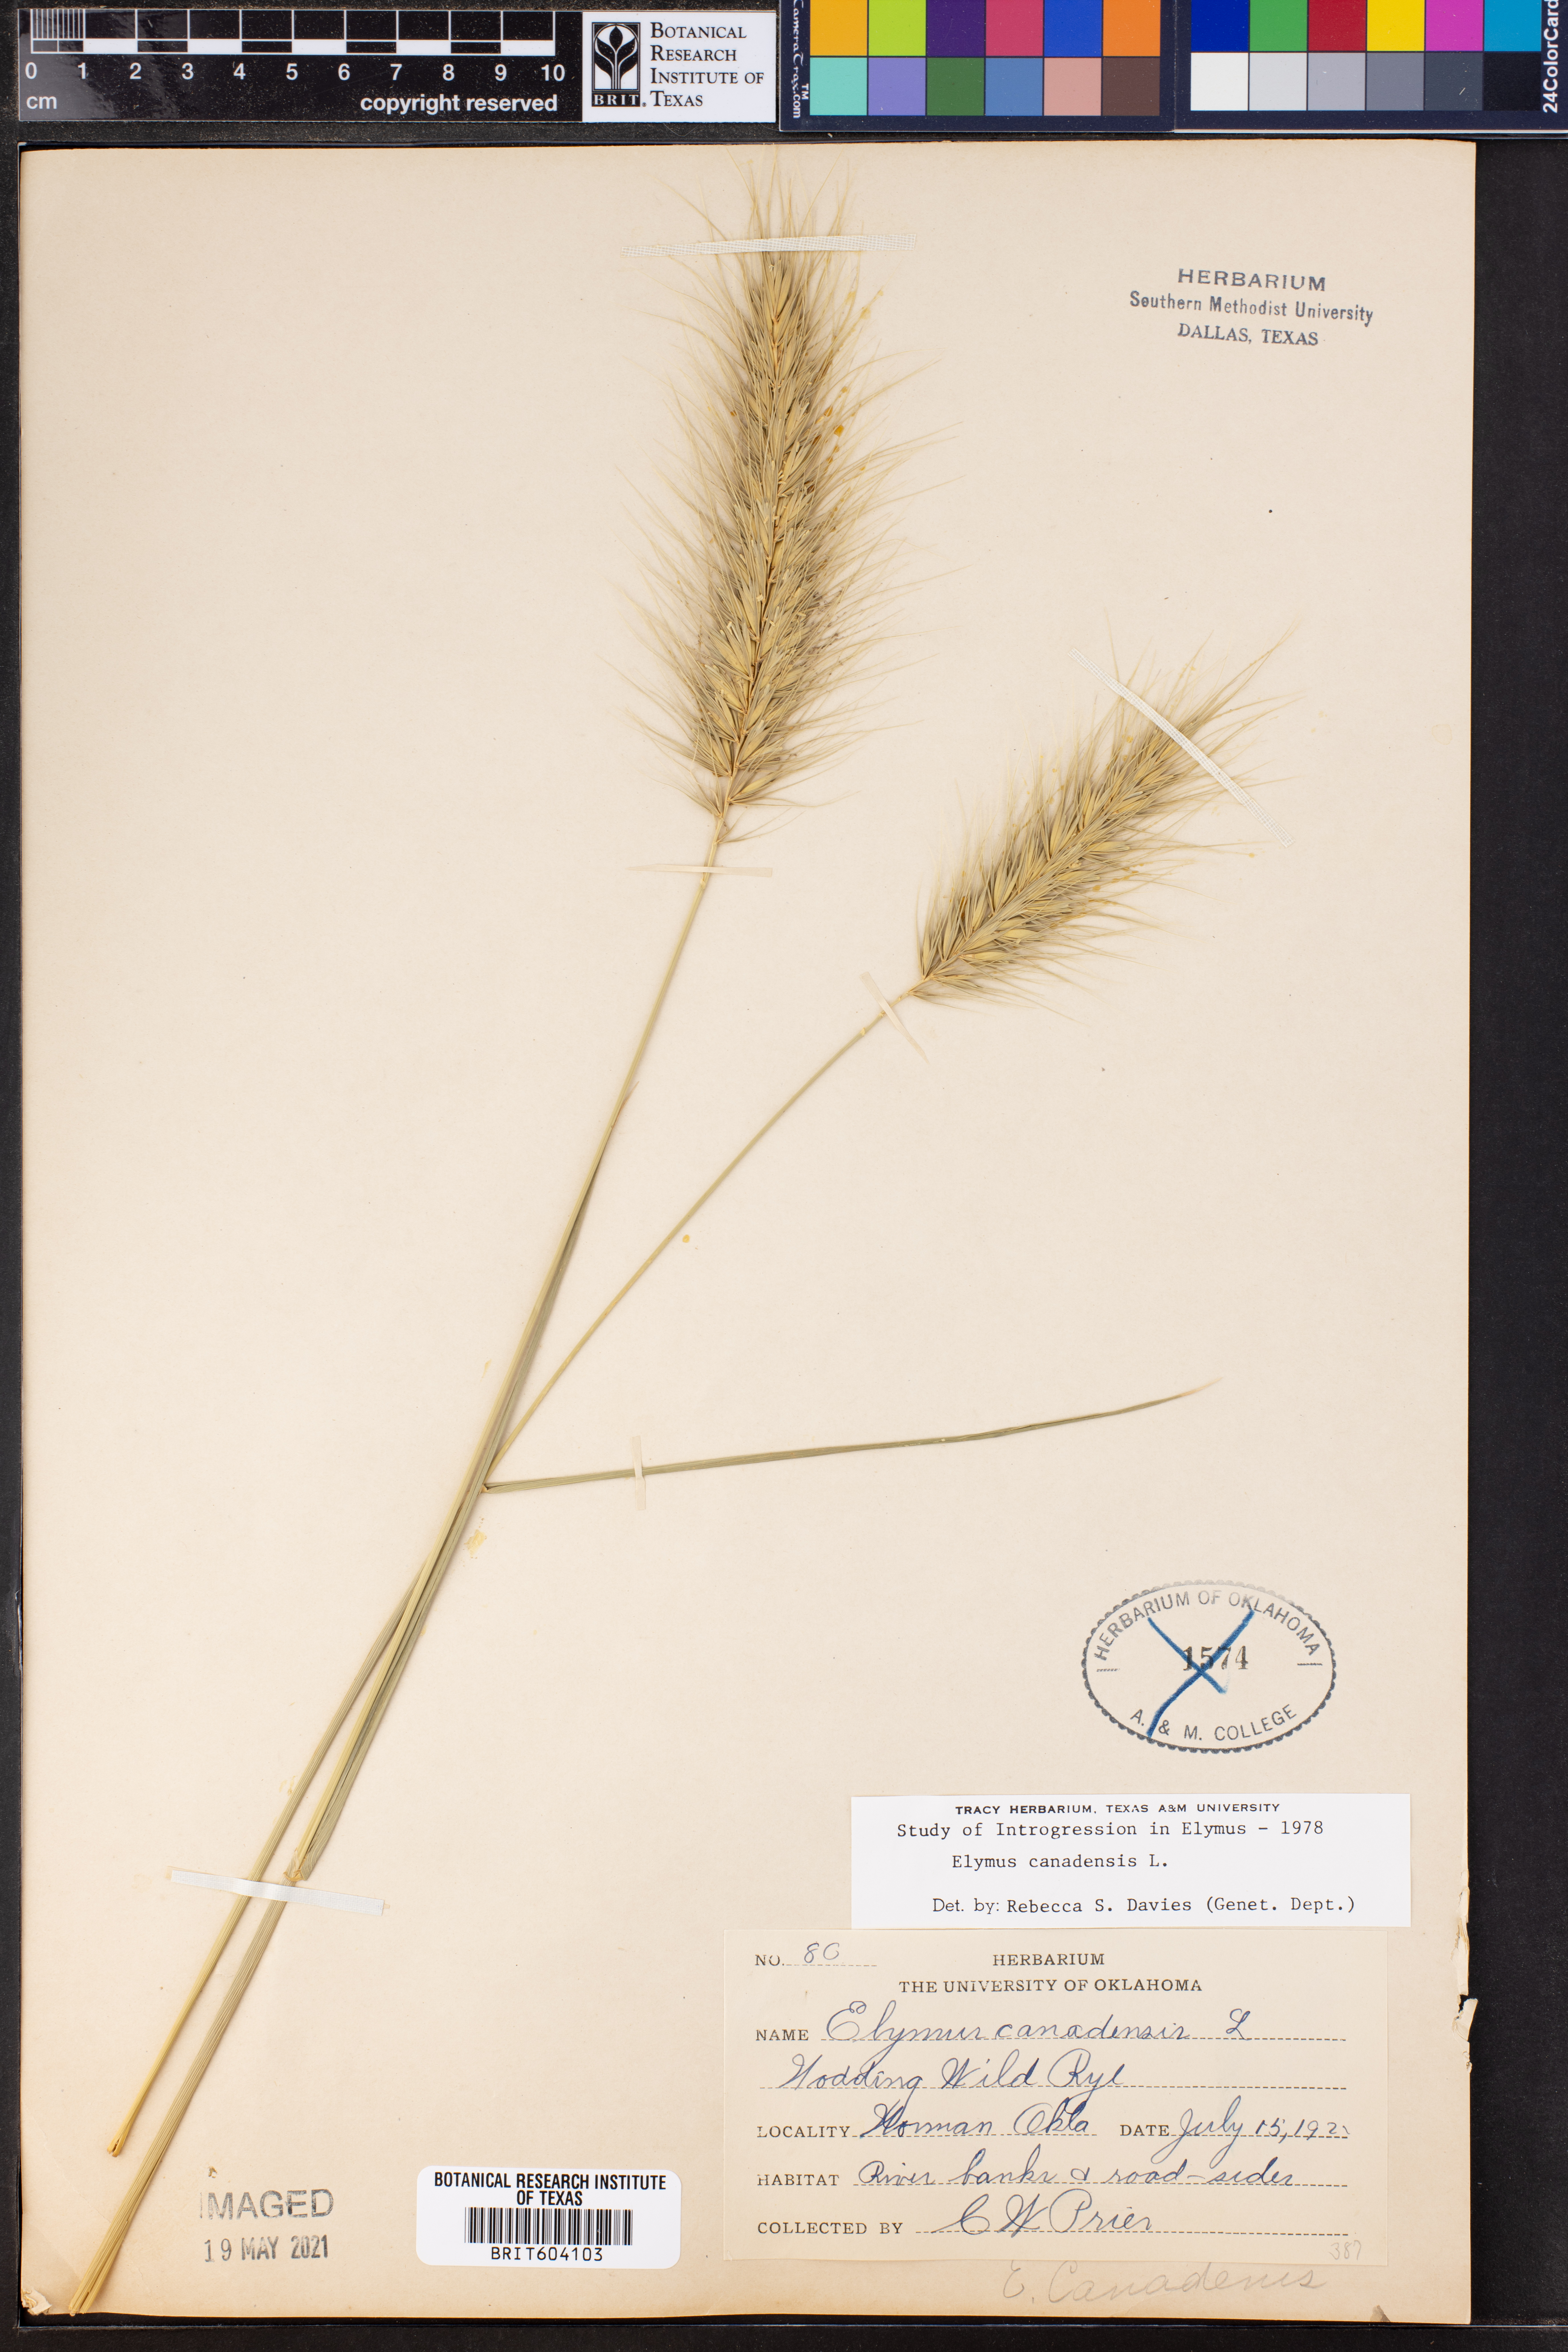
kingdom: Plantae
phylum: Tracheophyta
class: Liliopsida
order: Poales
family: Poaceae
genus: Elymus
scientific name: Elymus canadensis
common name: Canada wild rye
